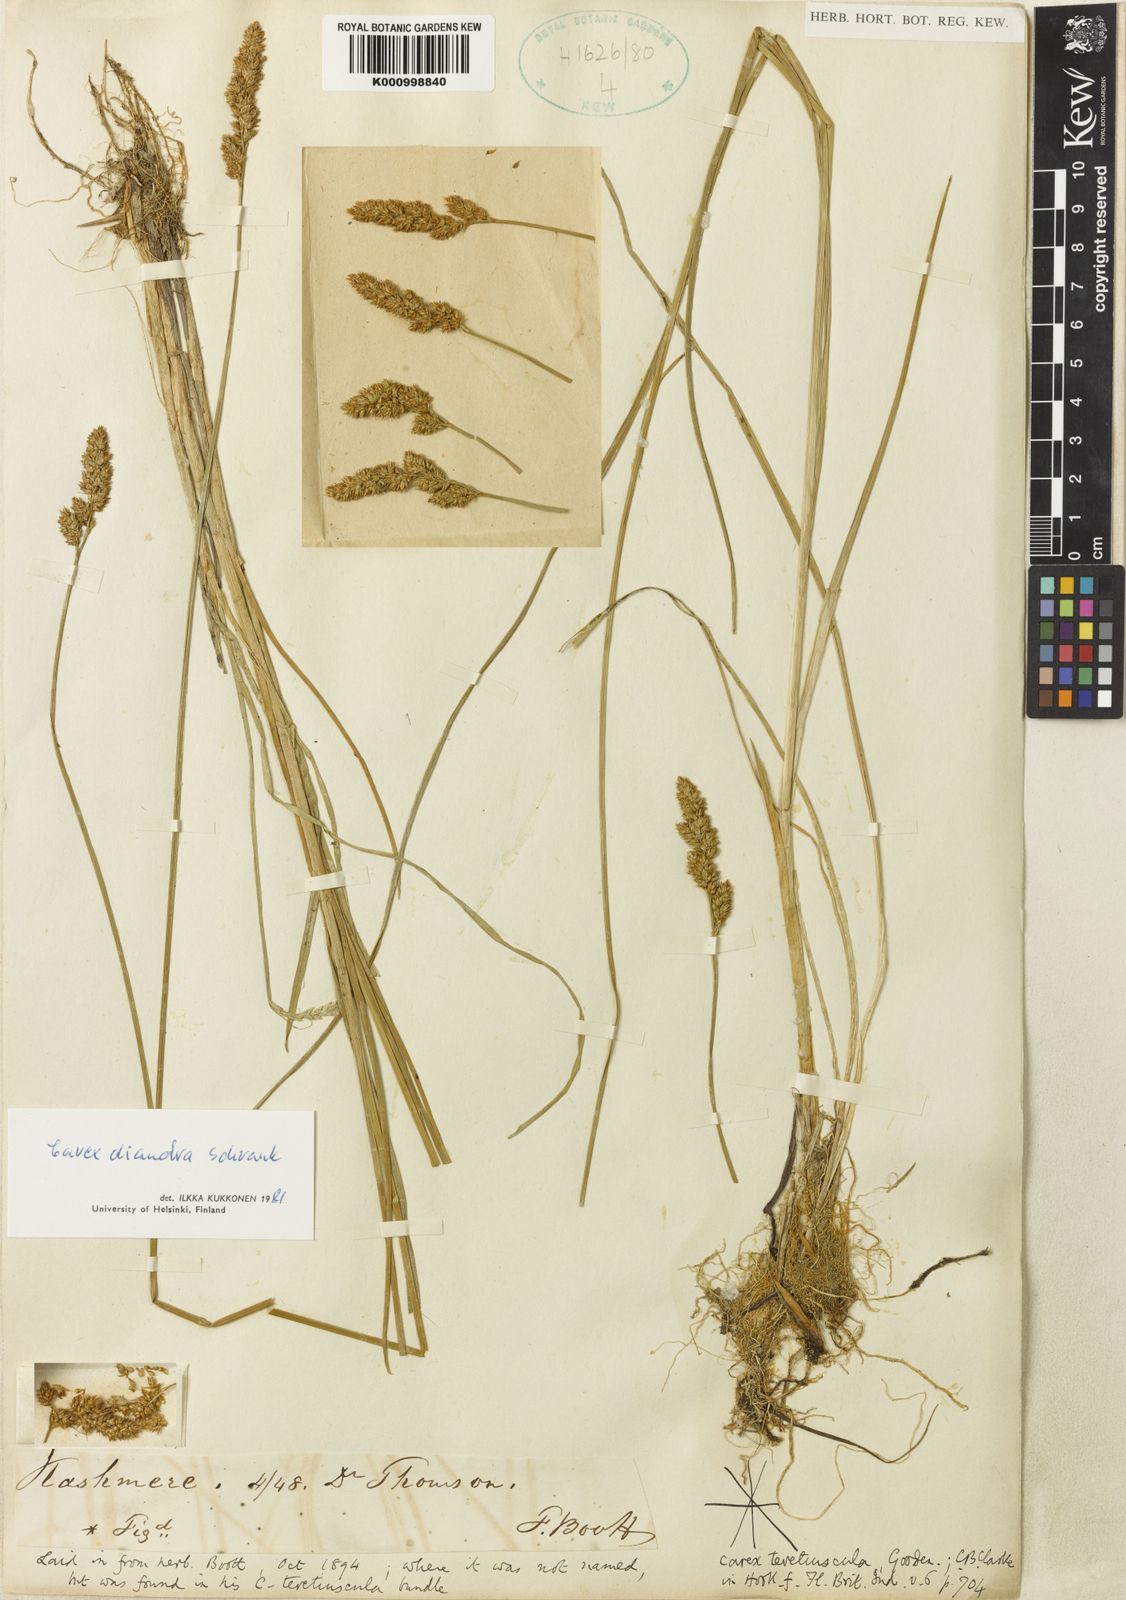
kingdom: Plantae
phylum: Tracheophyta
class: Liliopsida
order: Poales
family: Cyperaceae
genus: Carex
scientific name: Carex diandra
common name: Lesser tussock-sedge
